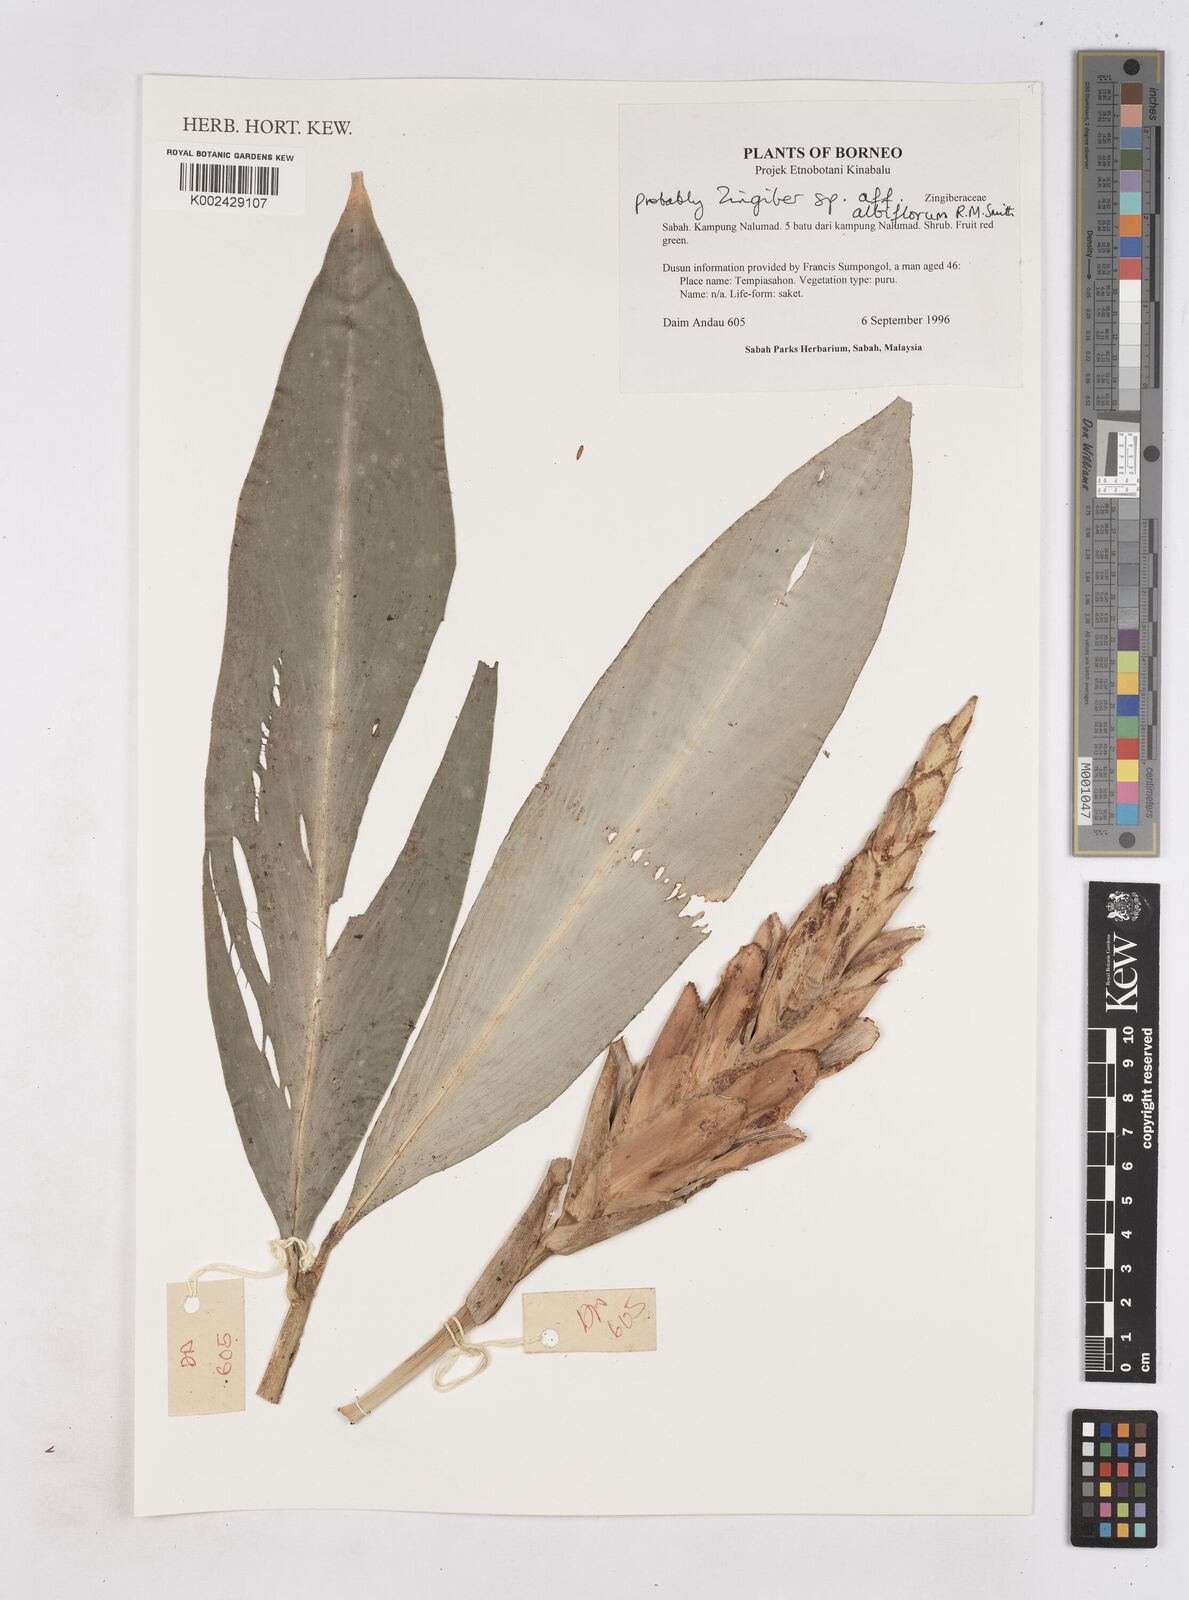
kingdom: Plantae
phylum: Tracheophyta
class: Liliopsida
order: Zingiberales
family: Zingiberaceae
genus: Zingiber
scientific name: Zingiber coloratum
